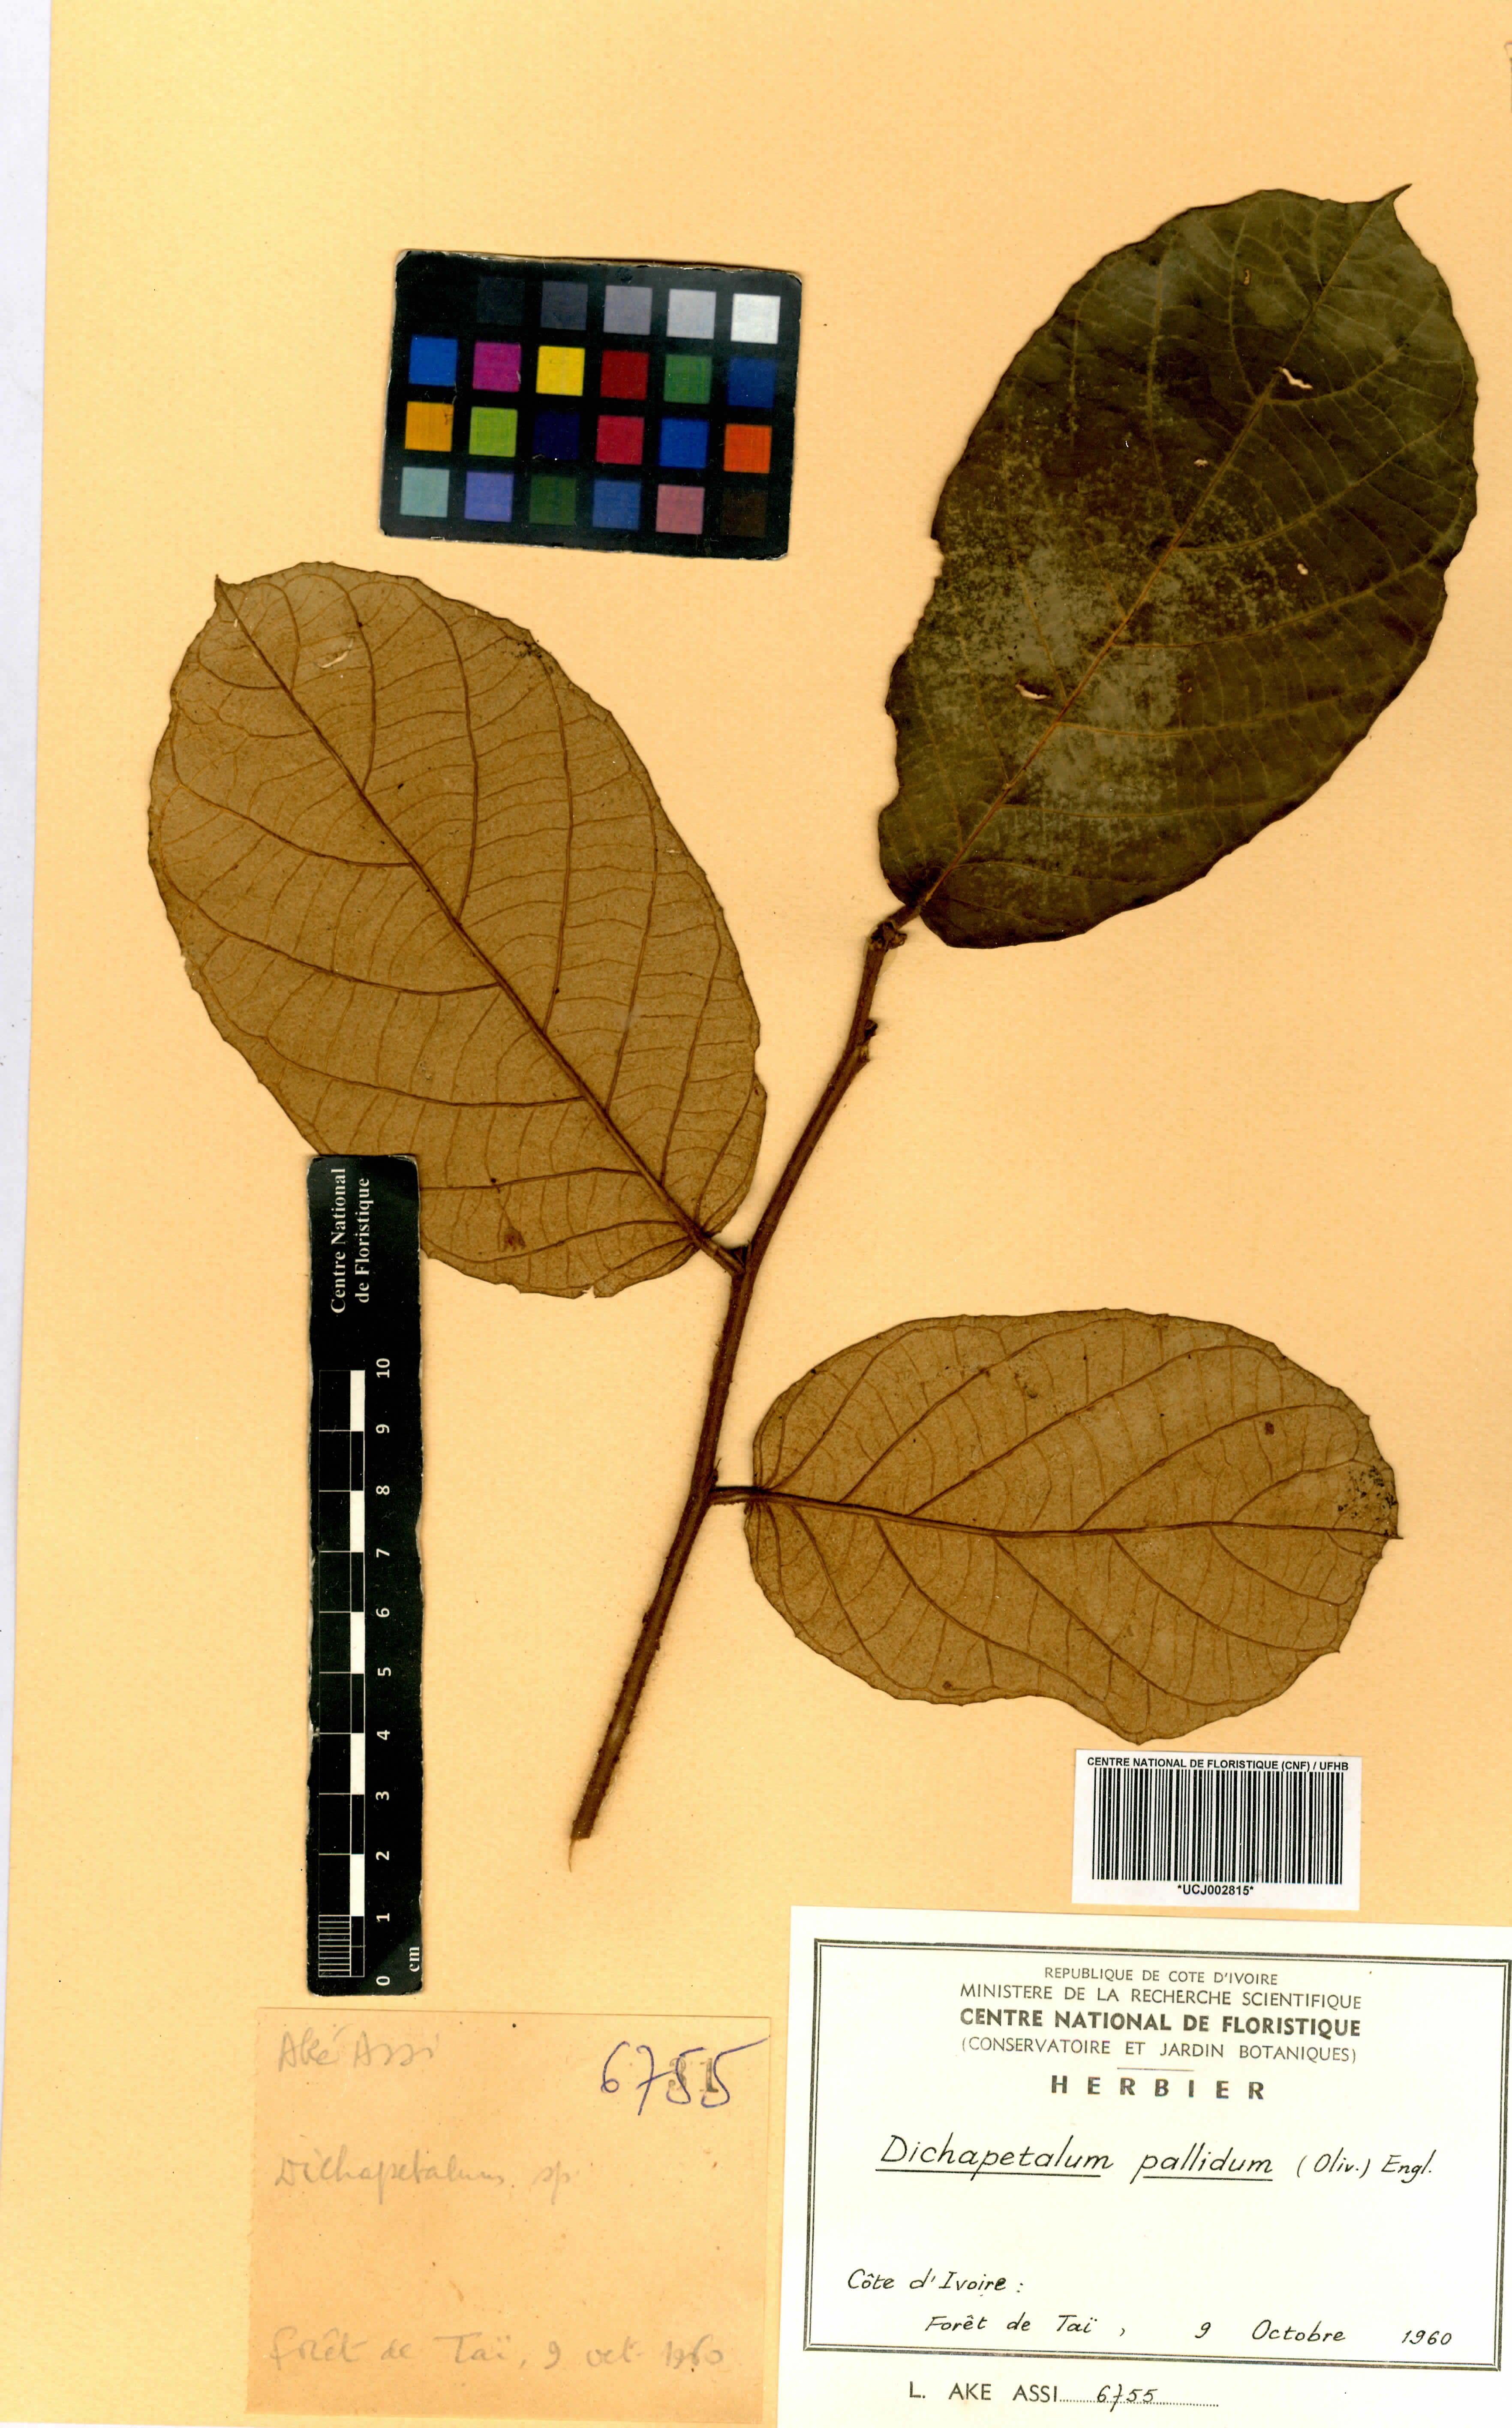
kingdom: Plantae
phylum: Tracheophyta
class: Magnoliopsida
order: Malpighiales
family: Dichapetalaceae
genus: Dichapetalum
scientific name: Dichapetalum pallidum
